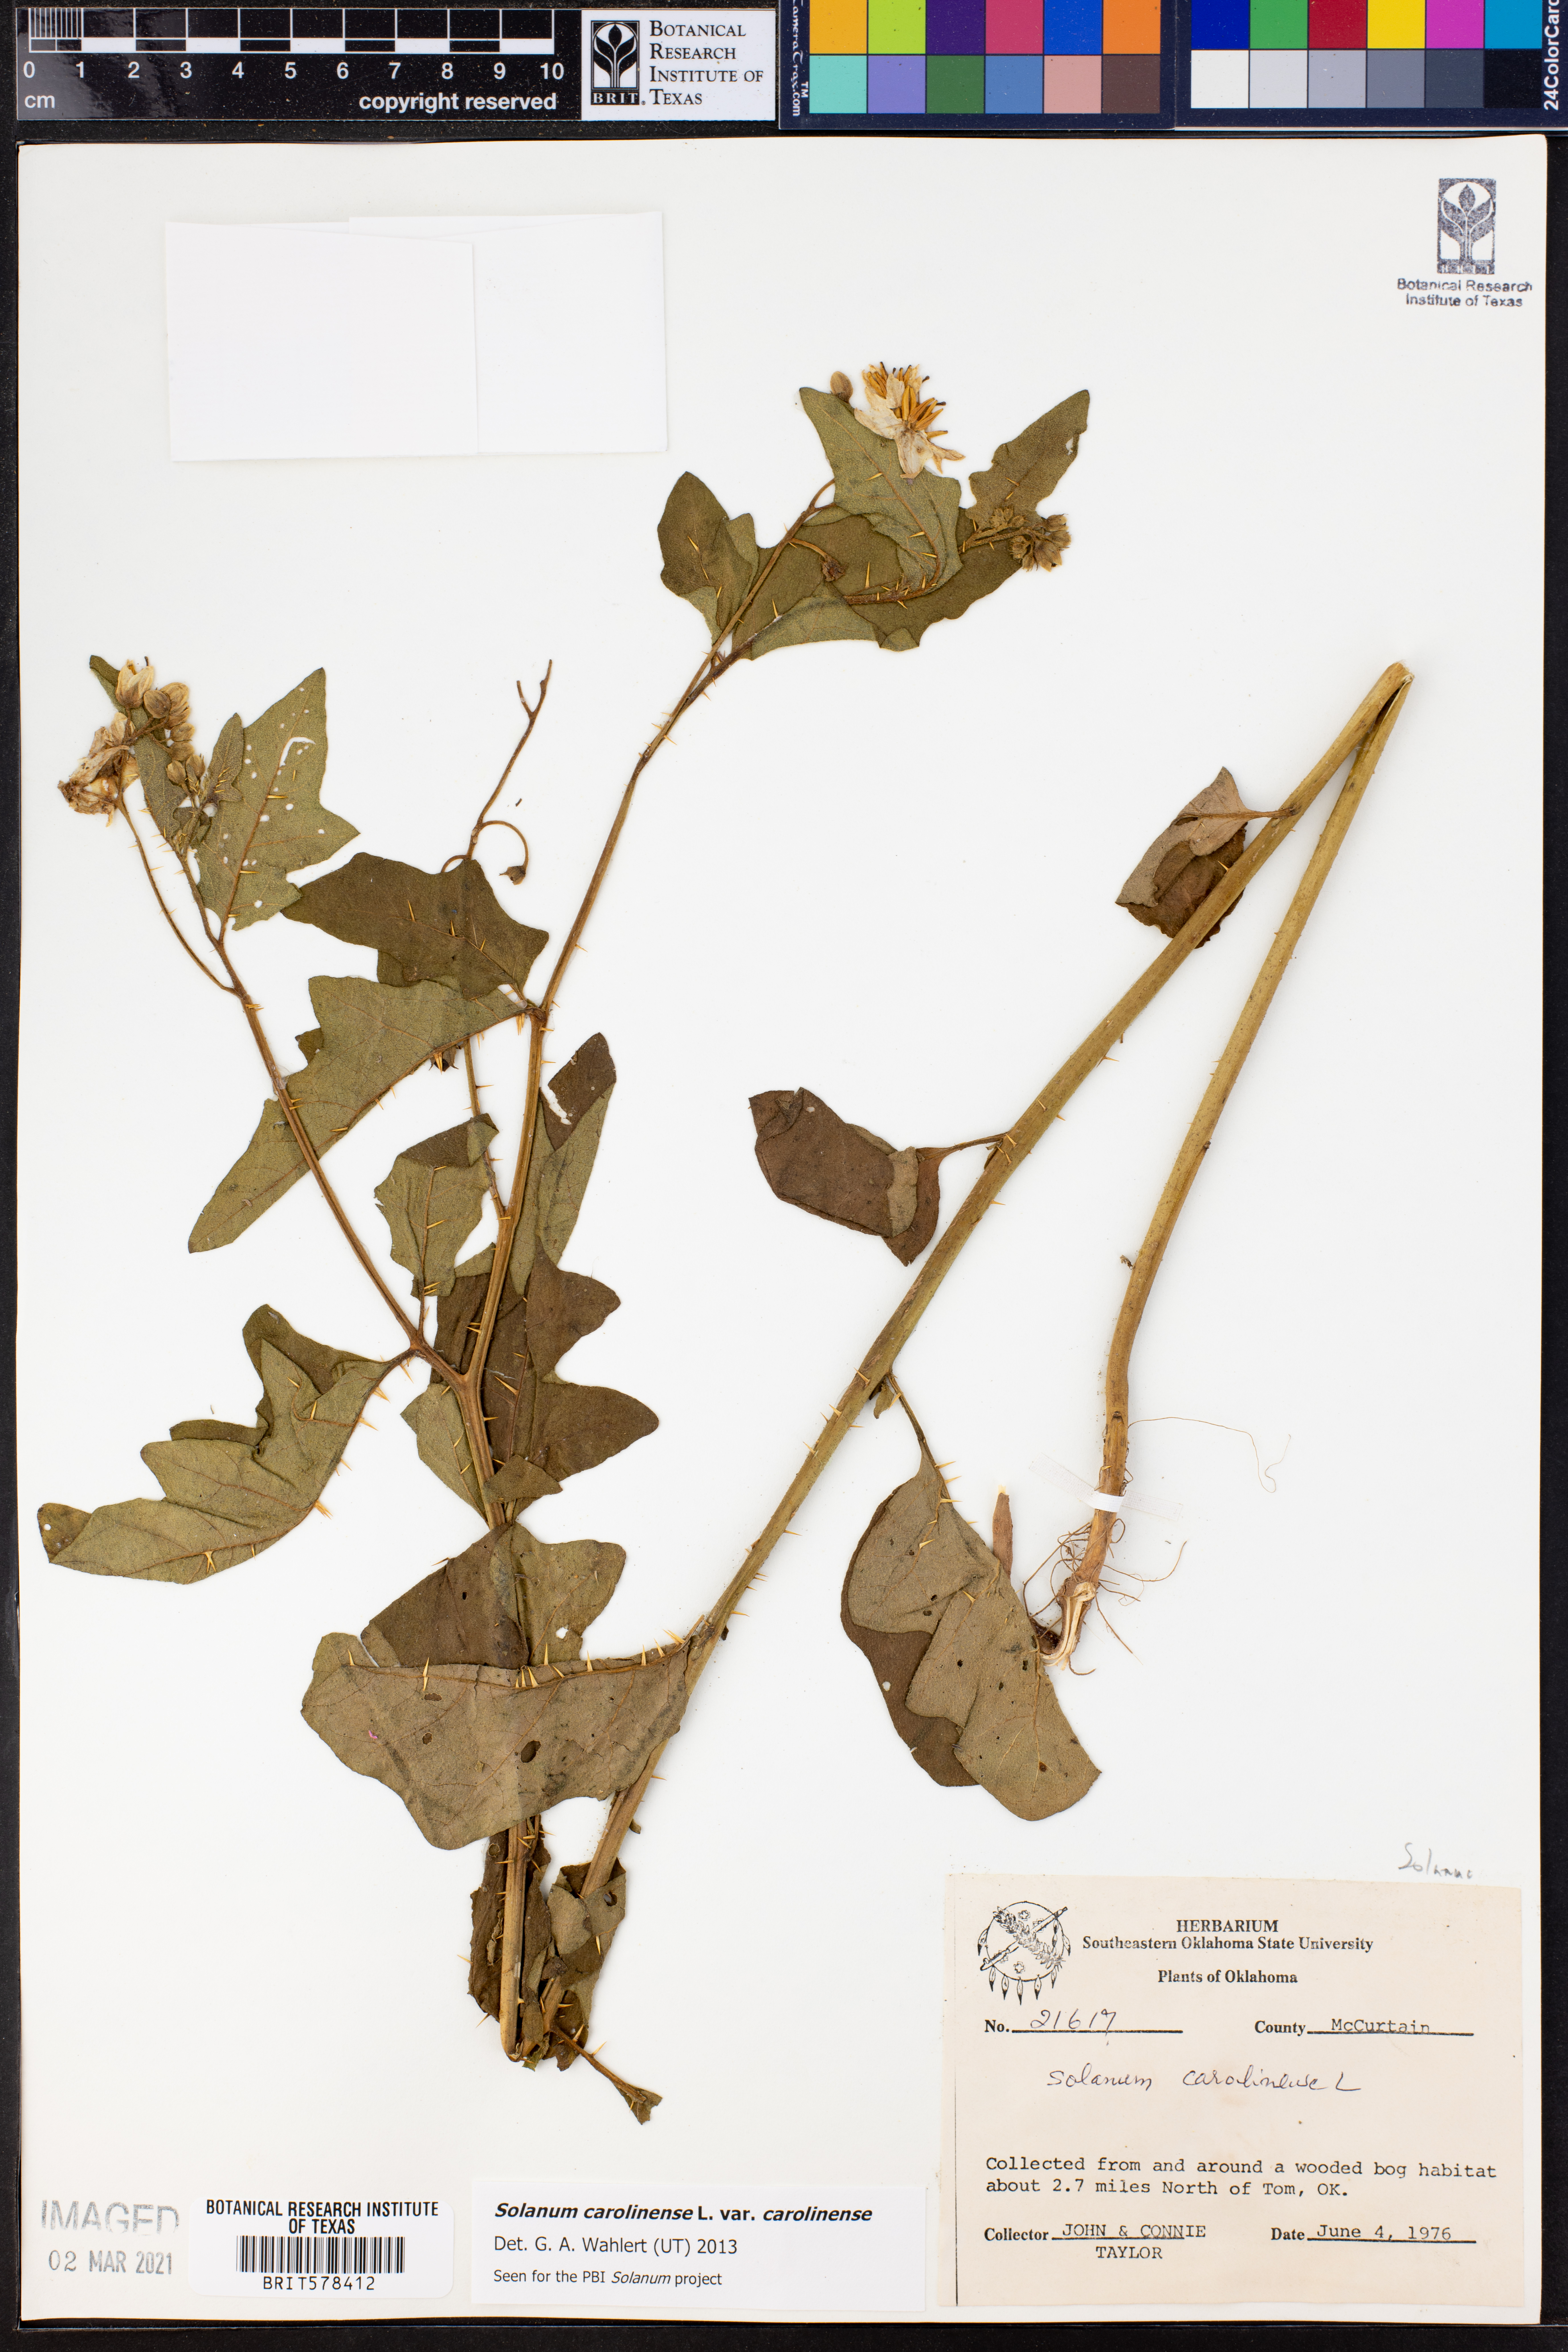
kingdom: Plantae
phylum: Tracheophyta
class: Magnoliopsida
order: Solanales
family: Solanaceae
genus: Solanum
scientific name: Solanum carolinense
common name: Horse-nettle
